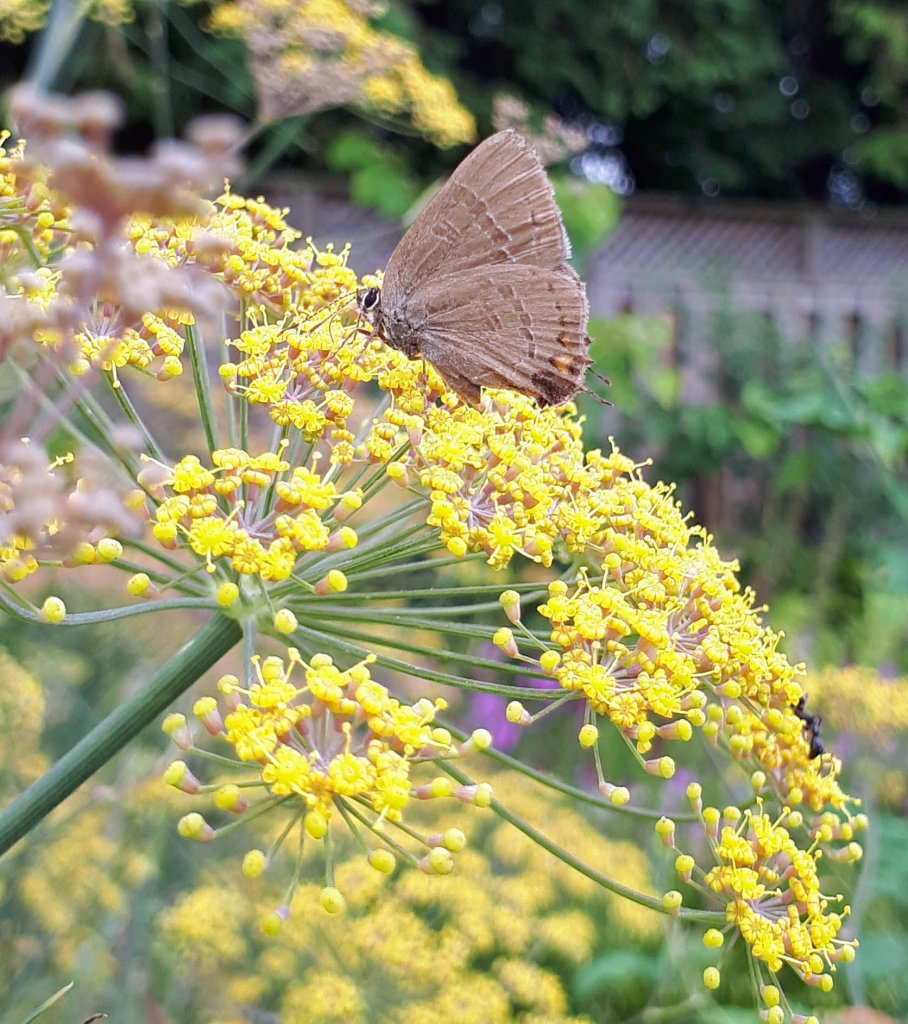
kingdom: Animalia
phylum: Arthropoda
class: Insecta
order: Lepidoptera
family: Lycaenidae
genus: Satyrium
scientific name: Satyrium calanus
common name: Banded Hairstreak
